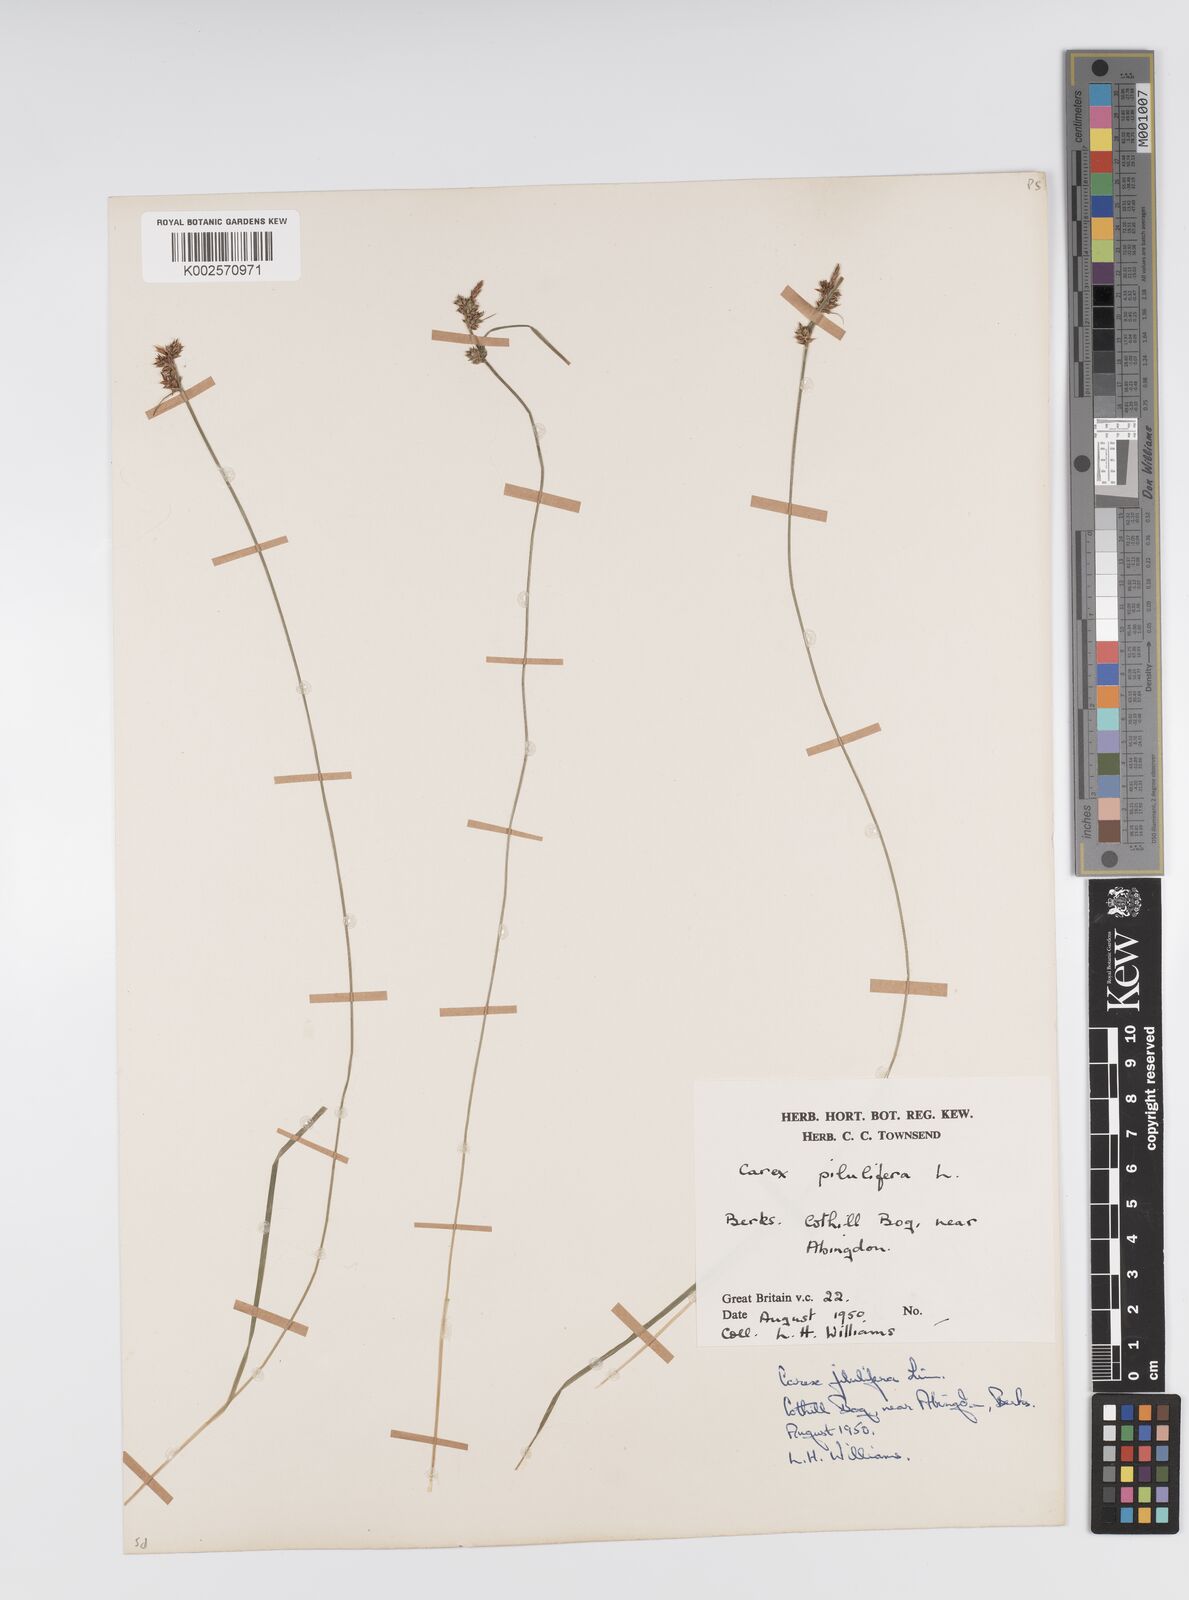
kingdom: Plantae
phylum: Tracheophyta
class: Liliopsida
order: Poales
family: Cyperaceae
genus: Carex
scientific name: Carex pilulifera
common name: Pill sedge
